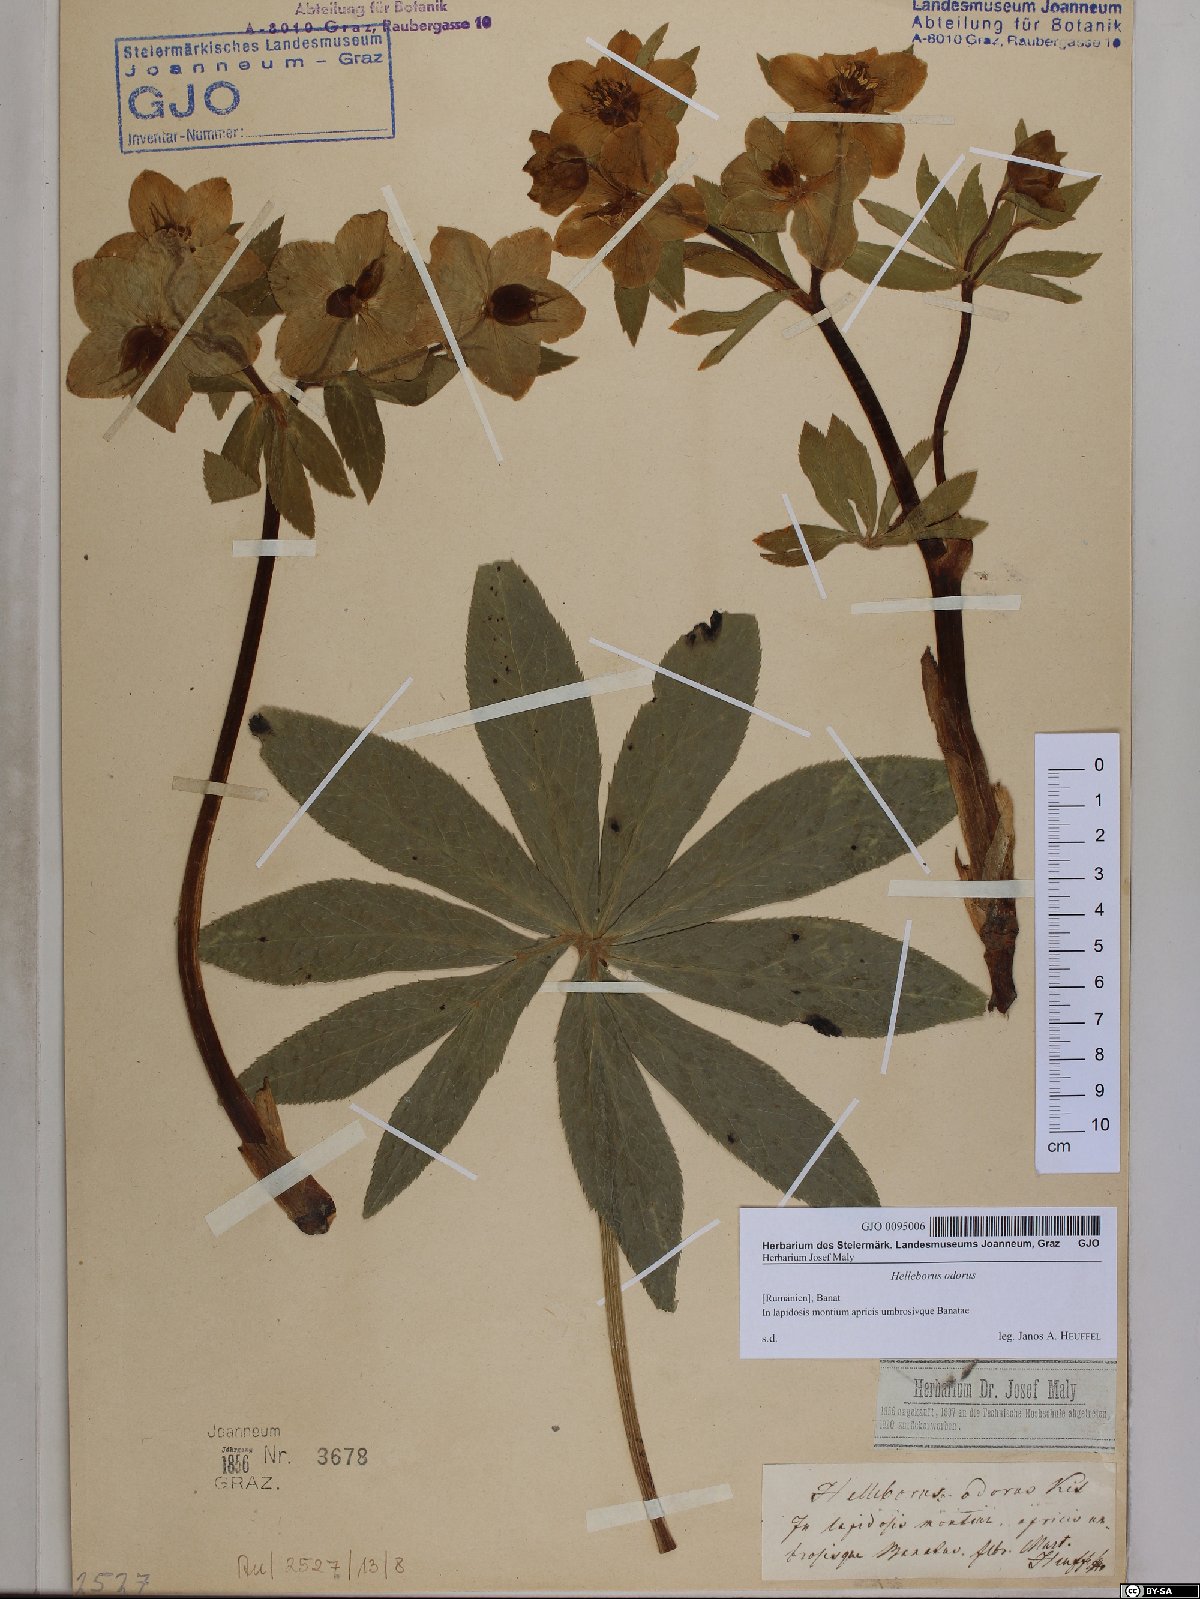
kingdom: Plantae
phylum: Tracheophyta
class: Magnoliopsida
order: Ranunculales
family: Ranunculaceae
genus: Helleborus
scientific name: Helleborus odorus
